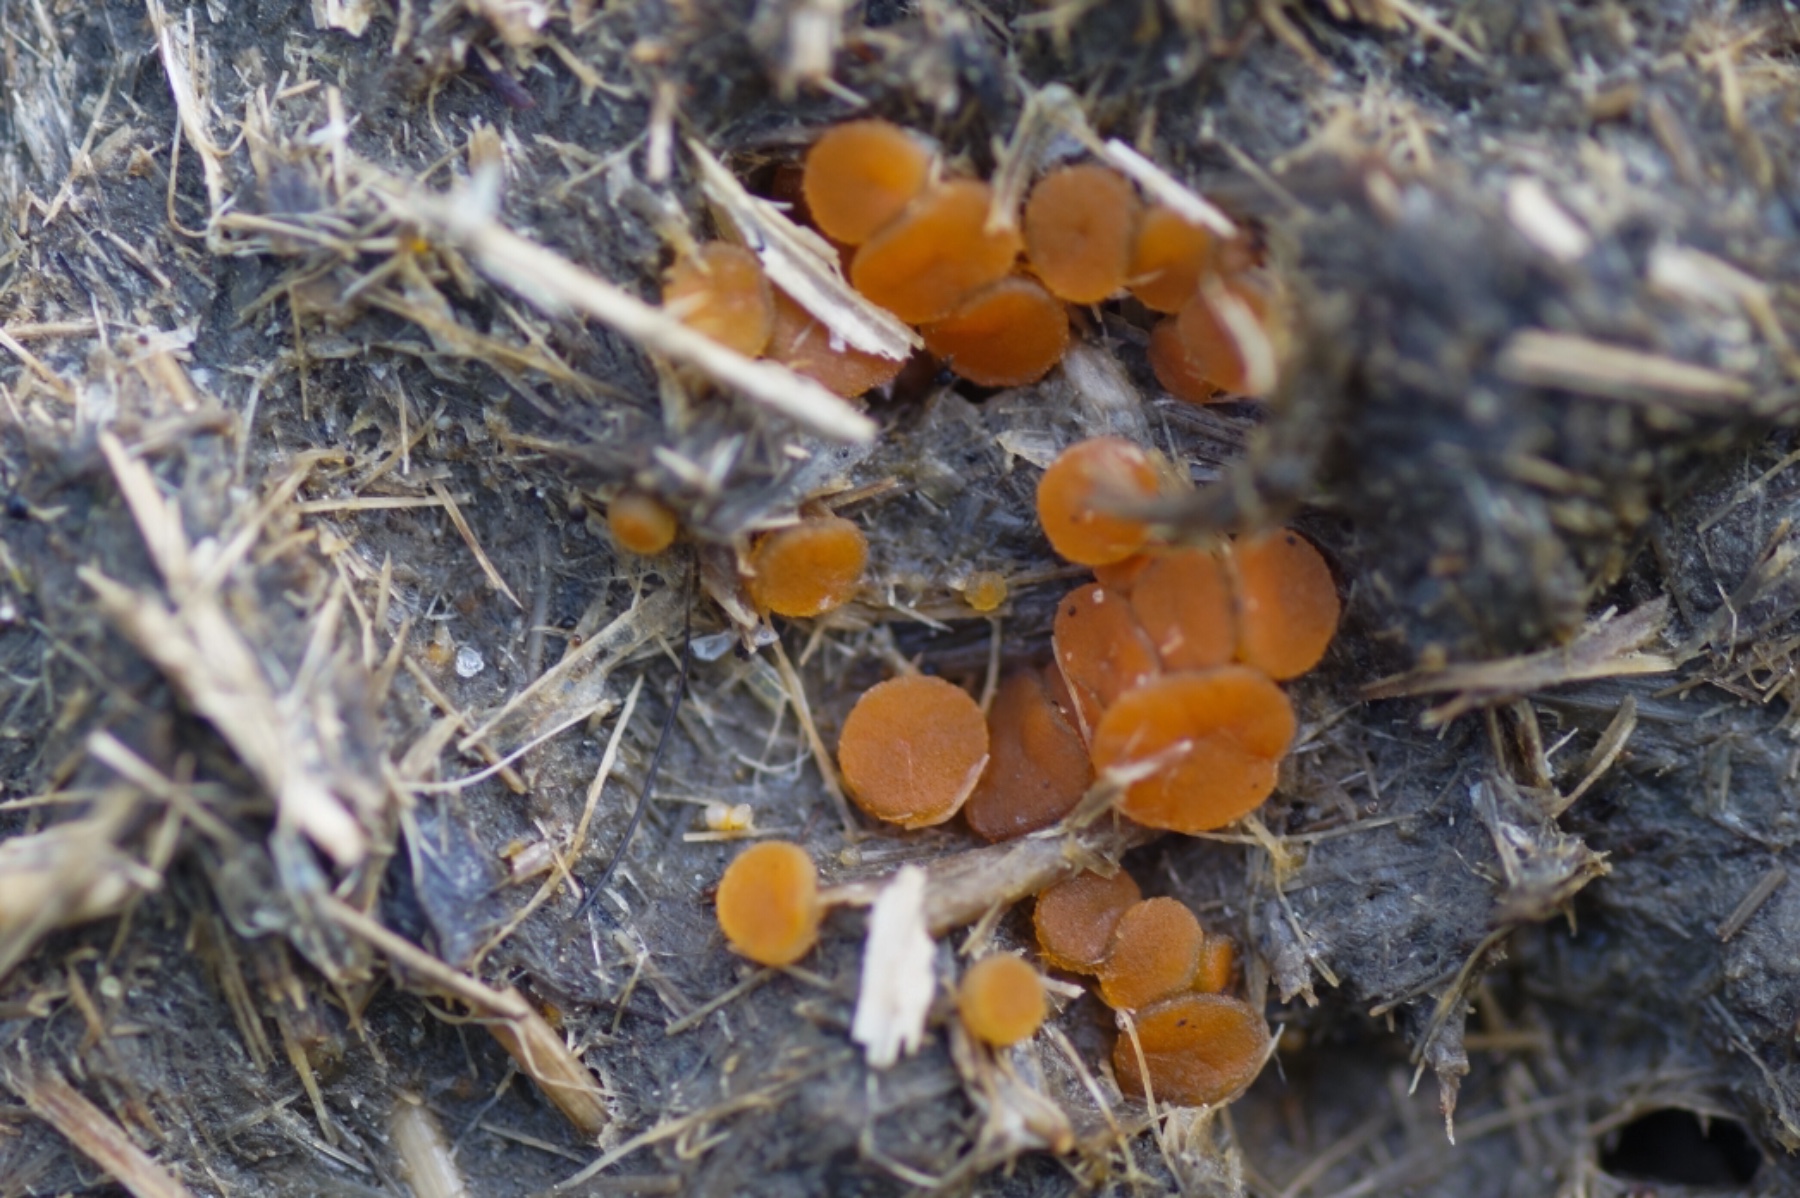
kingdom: Fungi
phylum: Ascomycota
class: Pezizomycetes
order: Pezizales
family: Pyronemataceae
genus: Cheilymenia
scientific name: Cheilymenia granulata
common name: møgbæger
